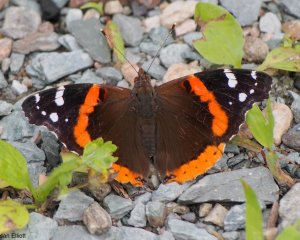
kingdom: Animalia
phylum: Arthropoda
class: Insecta
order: Lepidoptera
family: Nymphalidae
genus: Vanessa
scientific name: Vanessa atalanta
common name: Red Admiral
